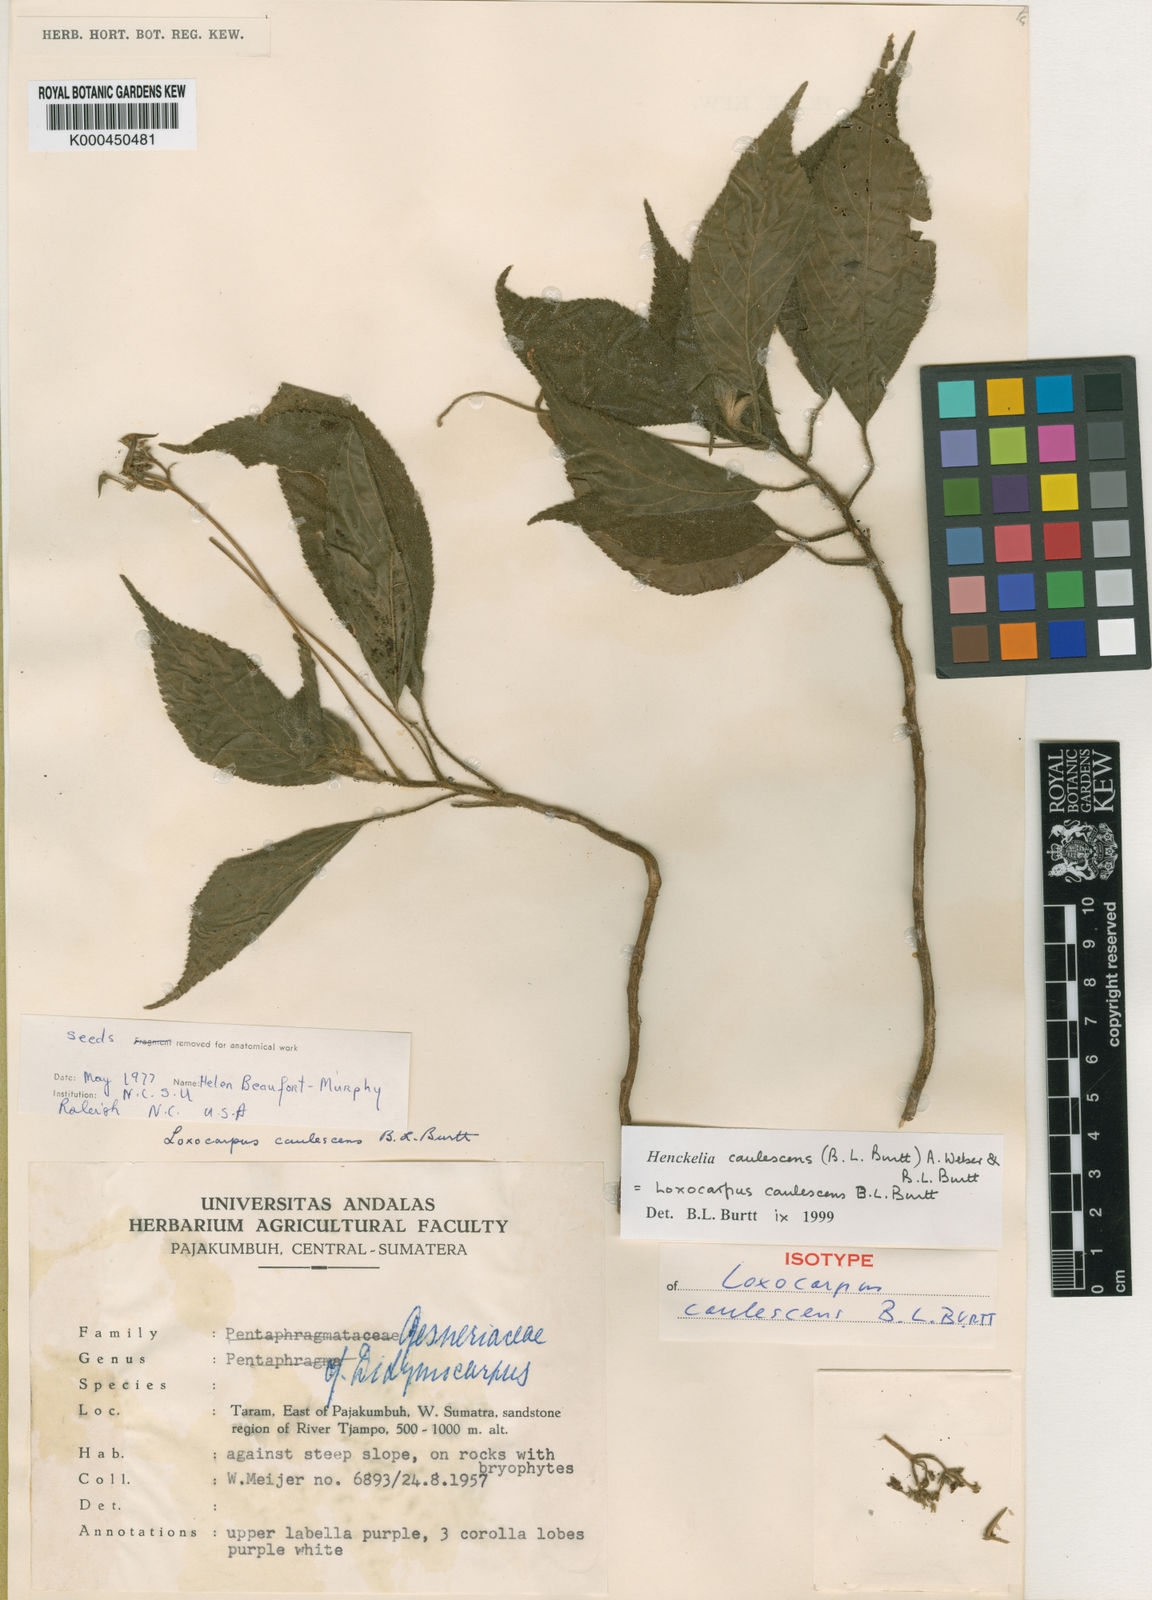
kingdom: Plantae
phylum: Tracheophyta
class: Magnoliopsida
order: Lamiales
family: Gesneriaceae
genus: Loxocarpus
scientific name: Loxocarpus caulescens
